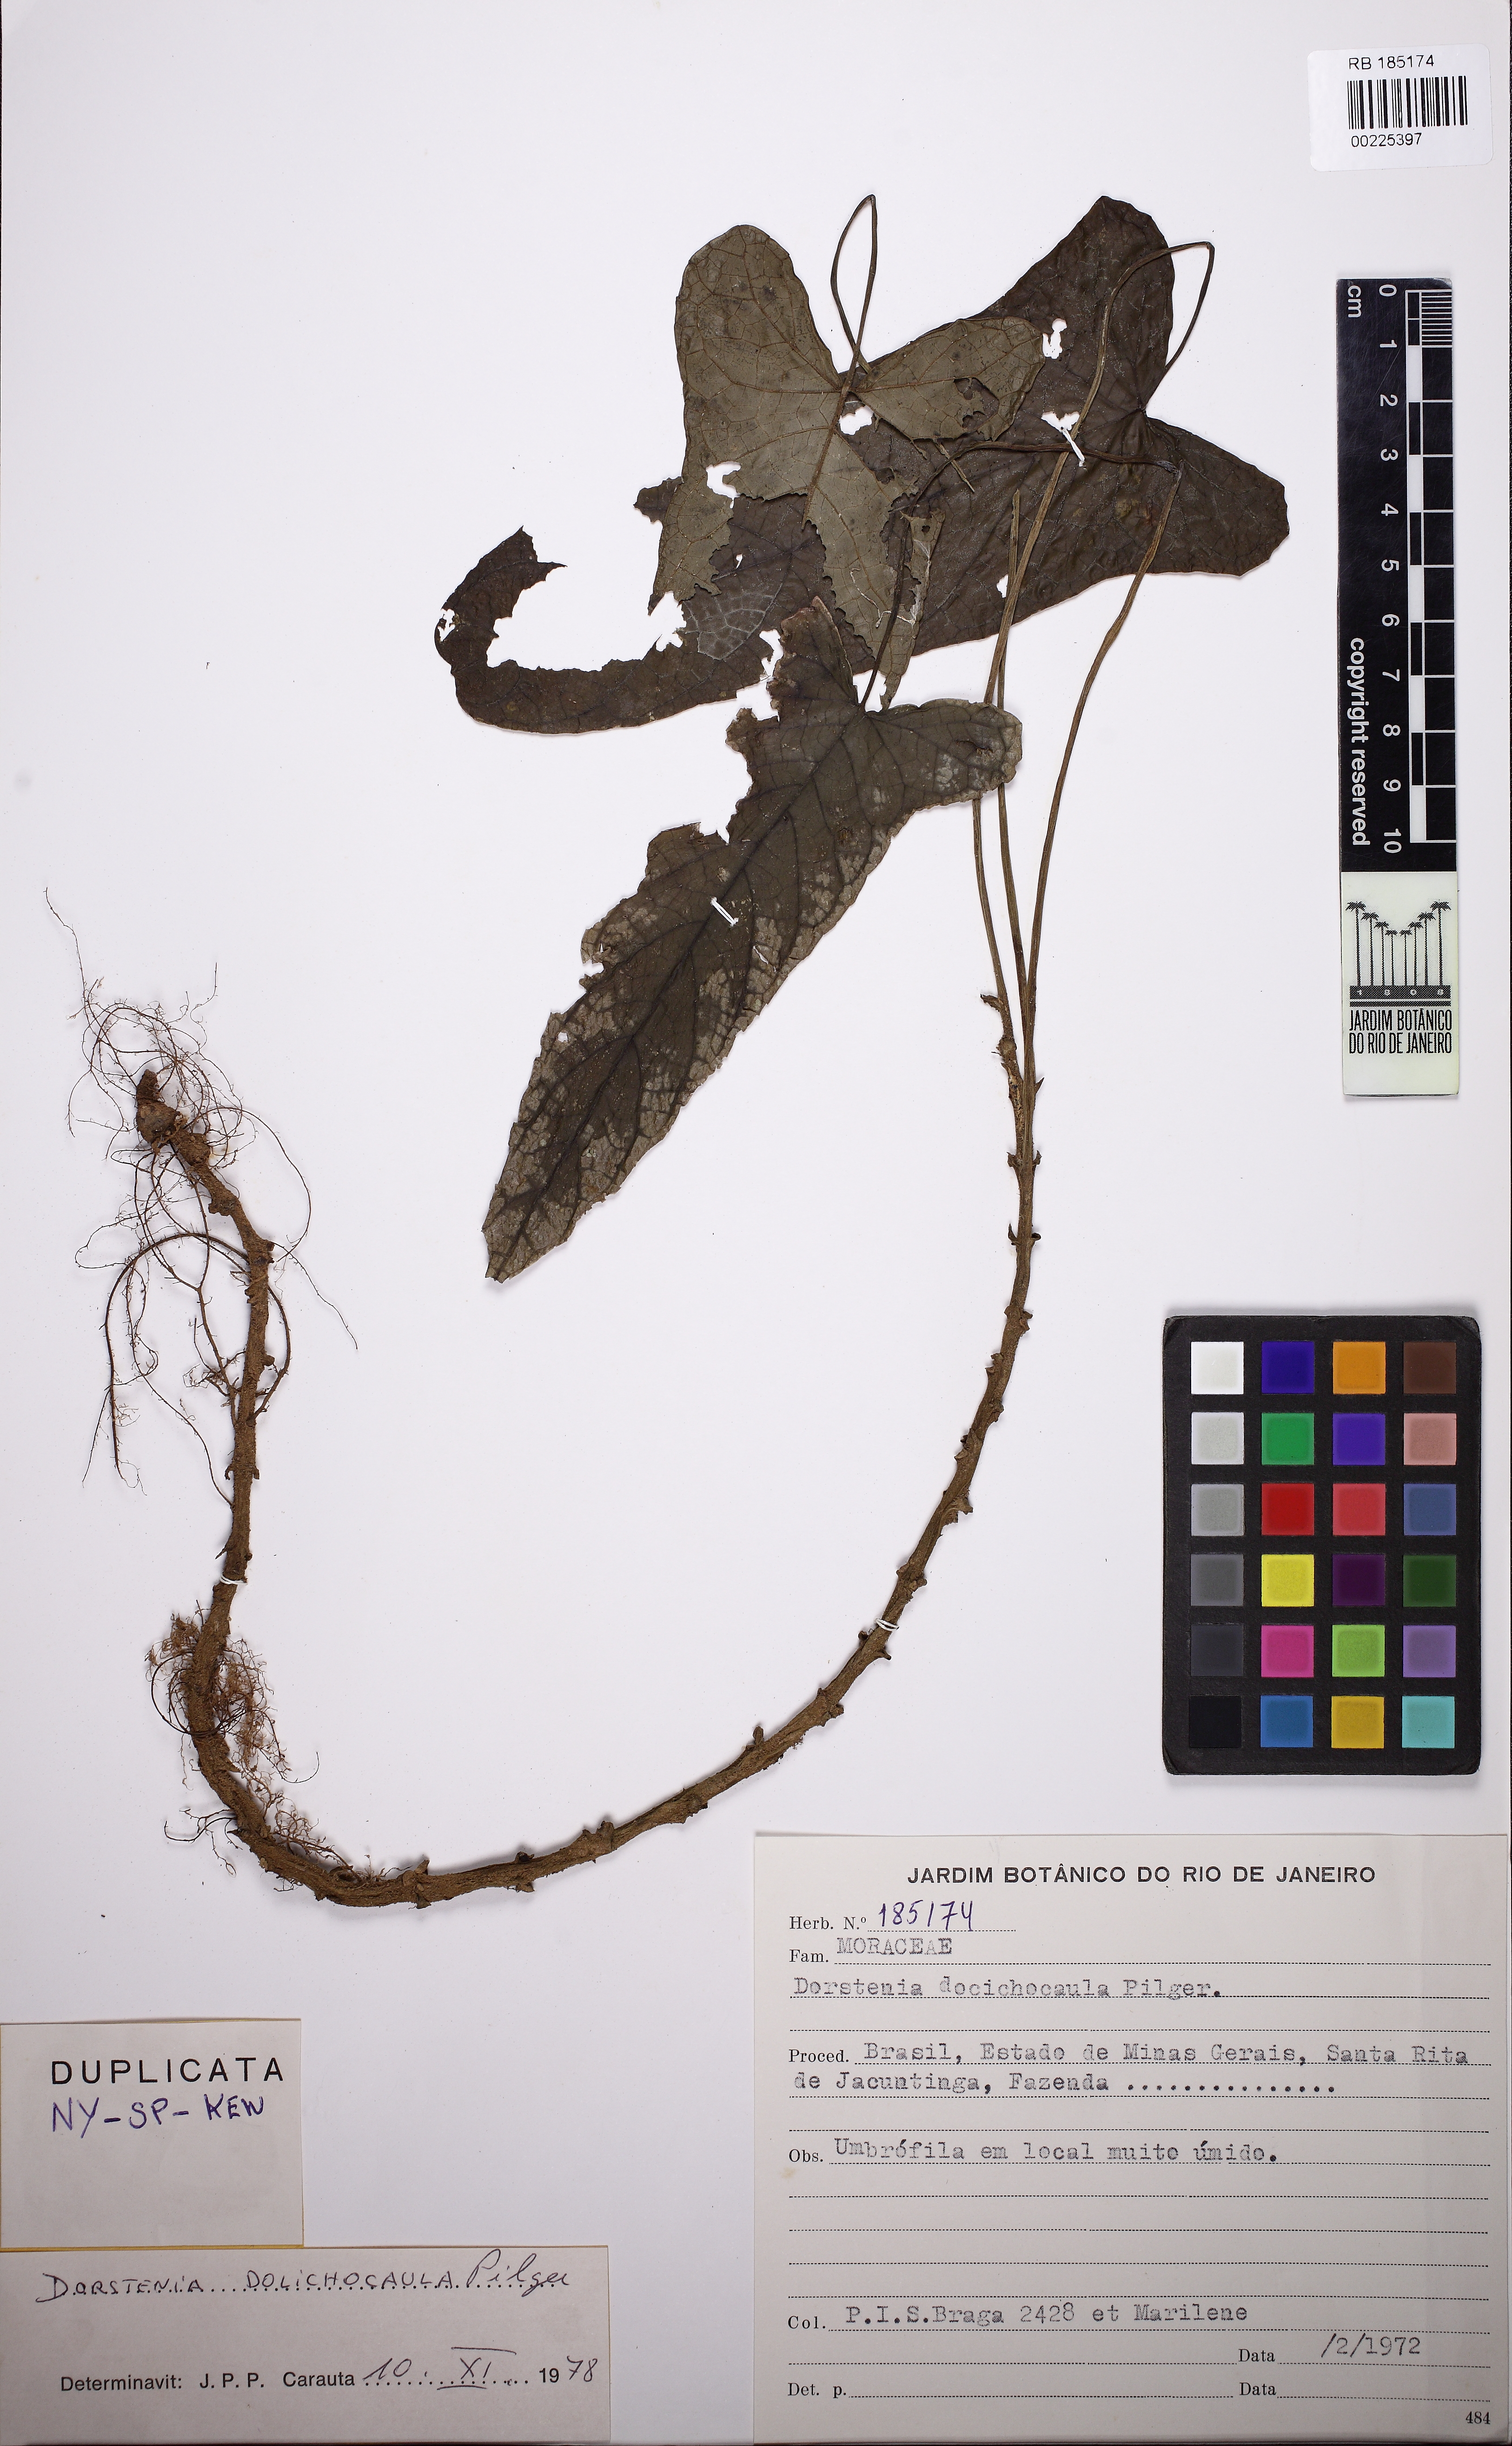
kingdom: Plantae
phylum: Tracheophyta
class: Magnoliopsida
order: Rosales
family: Moraceae
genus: Dorstenia
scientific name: Dorstenia ramosa
